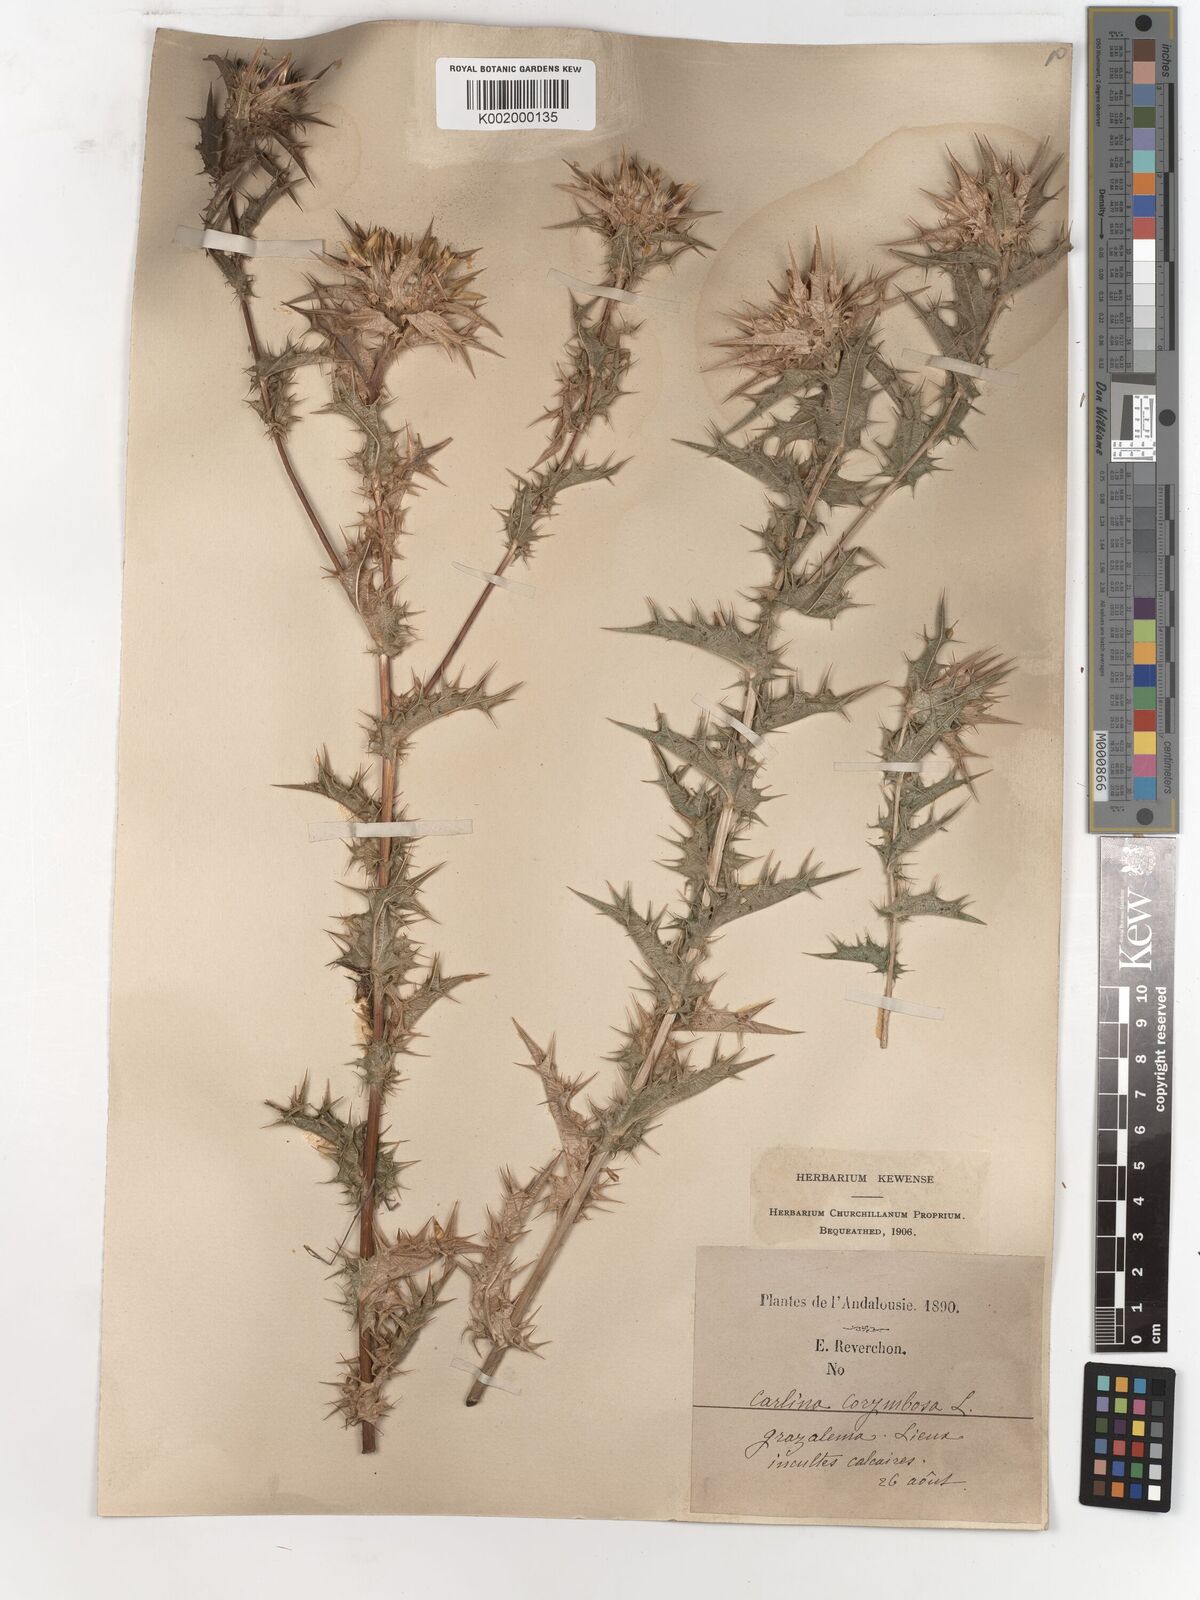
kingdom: Plantae
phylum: Tracheophyta
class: Magnoliopsida
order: Asterales
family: Asteraceae
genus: Carlina
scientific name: Carlina corymbosa
